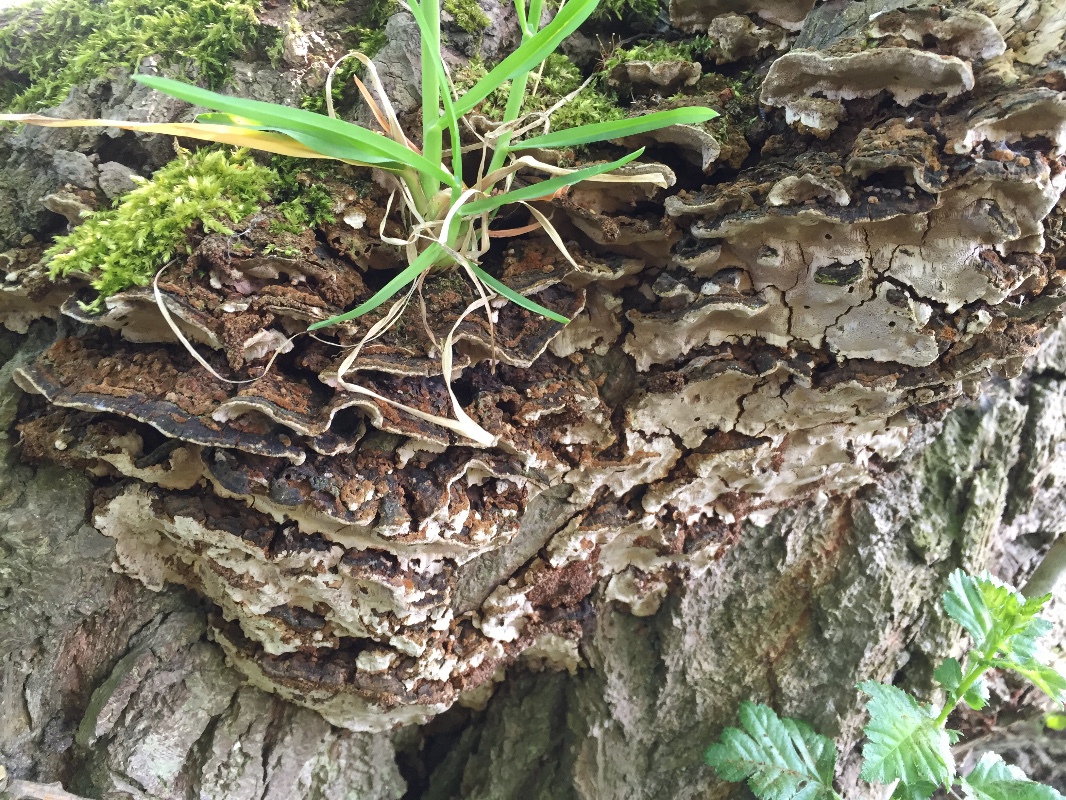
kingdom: Fungi
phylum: Basidiomycota
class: Agaricomycetes
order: Hymenochaetales
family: Hymenochaetaceae
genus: Phellinopsis
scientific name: Phellinopsis conchata
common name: pile-ildporesvamp
